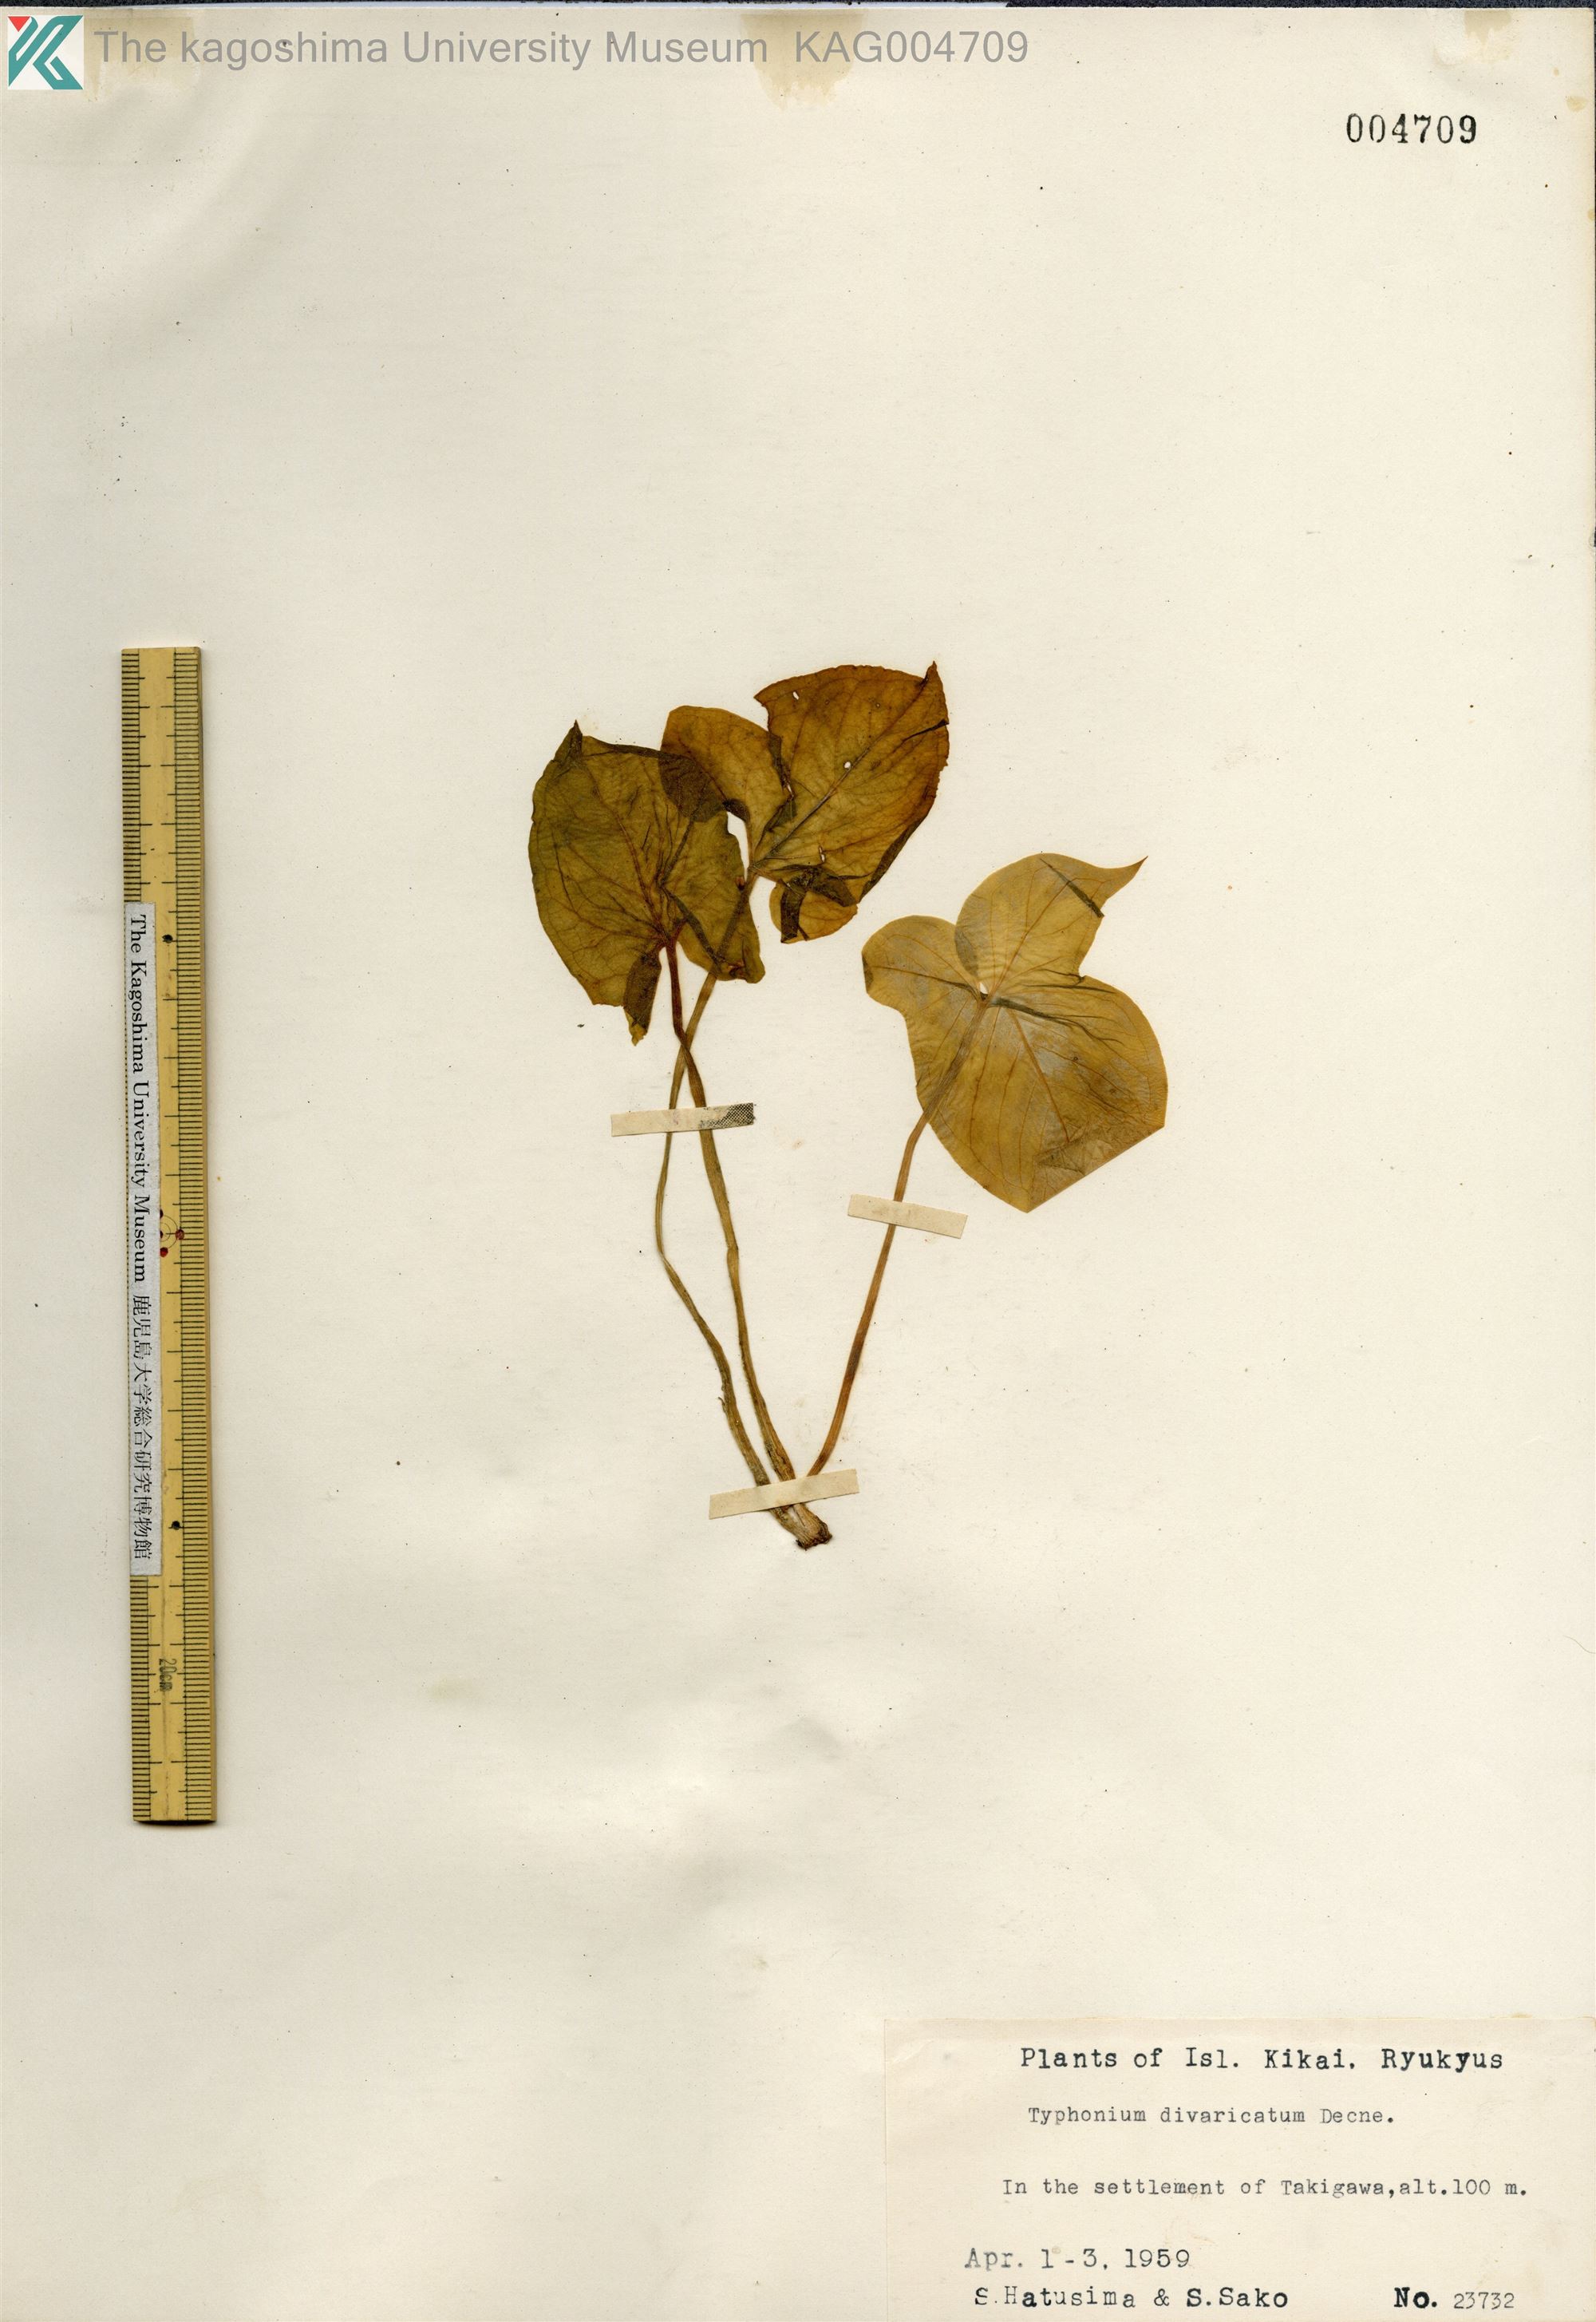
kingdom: Plantae
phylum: Tracheophyta
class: Liliopsida
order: Alismatales
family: Araceae
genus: Typhonium
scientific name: Typhonium
